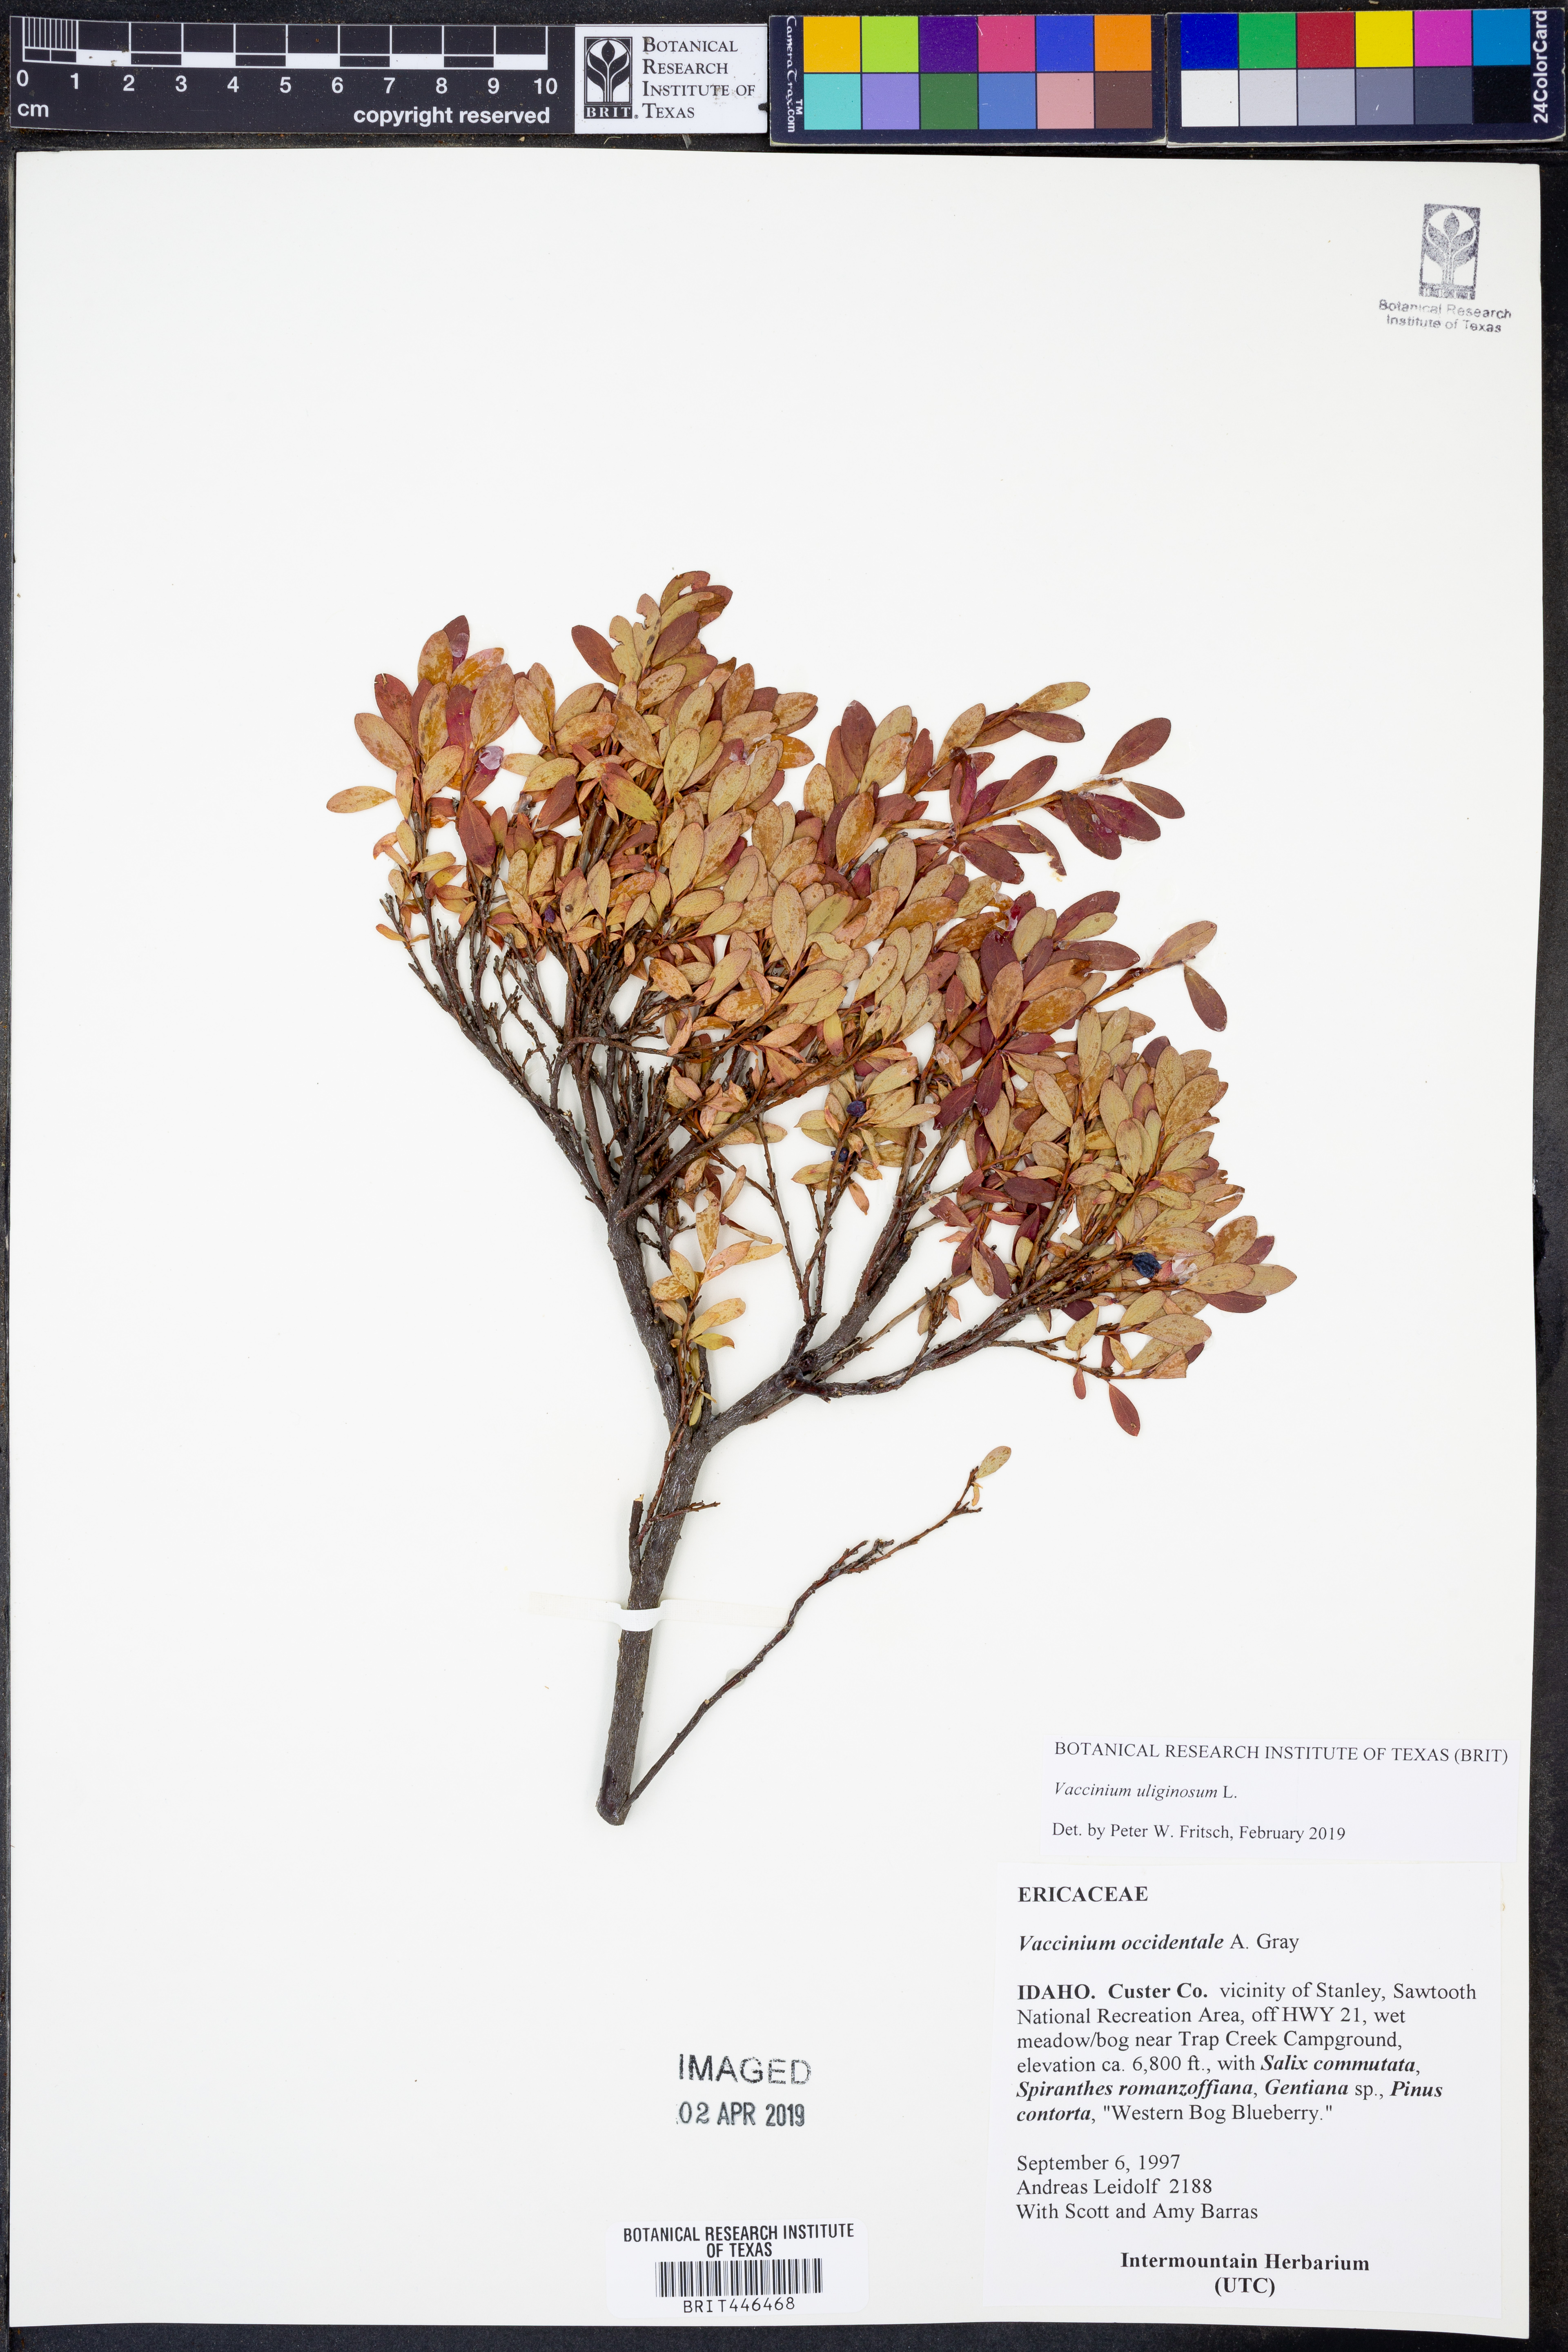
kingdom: Plantae
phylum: Tracheophyta
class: Magnoliopsida
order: Ericales
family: Ericaceae
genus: Vaccinium
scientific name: Vaccinium uliginosum
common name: Bog bilberry
